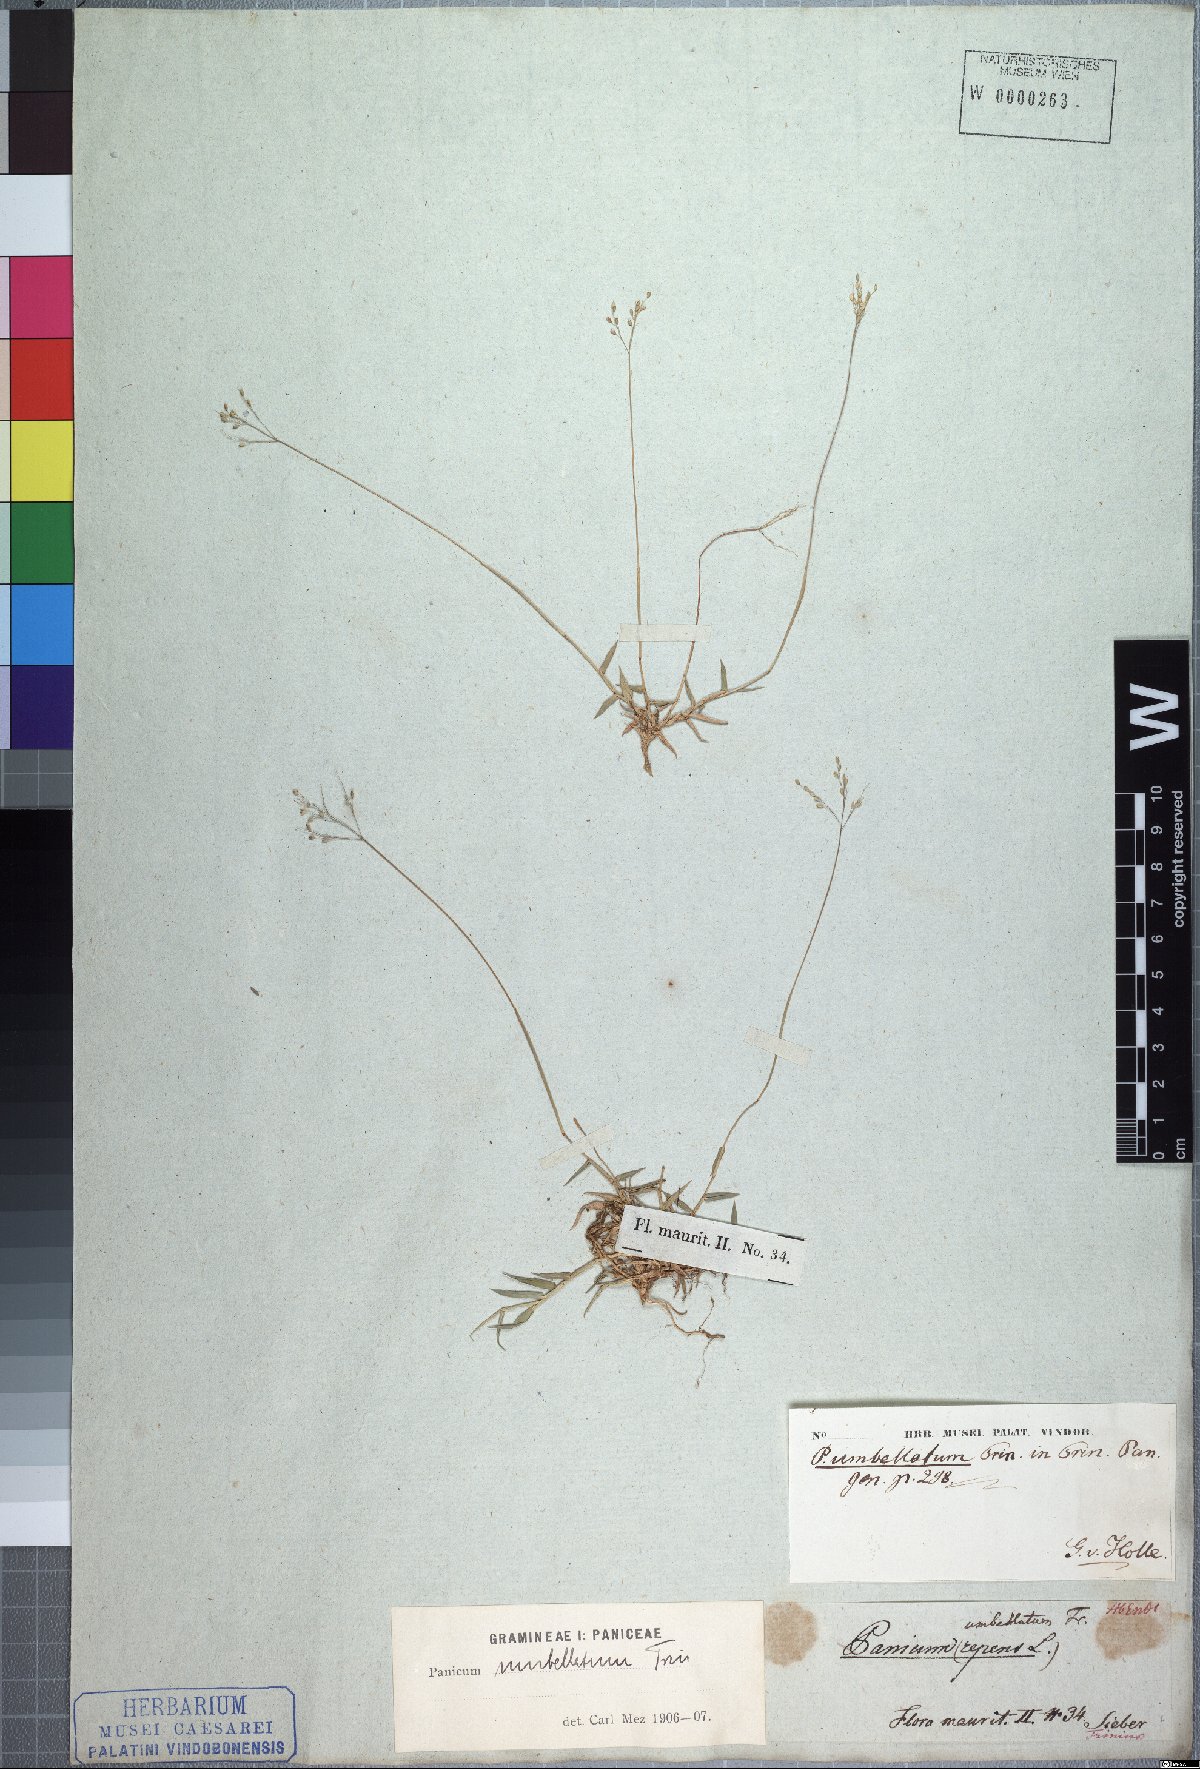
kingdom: Plantae
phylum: Tracheophyta
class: Liliopsida
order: Poales
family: Poaceae
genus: Urochloa
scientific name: Urochloa Brachiaria umbellata
